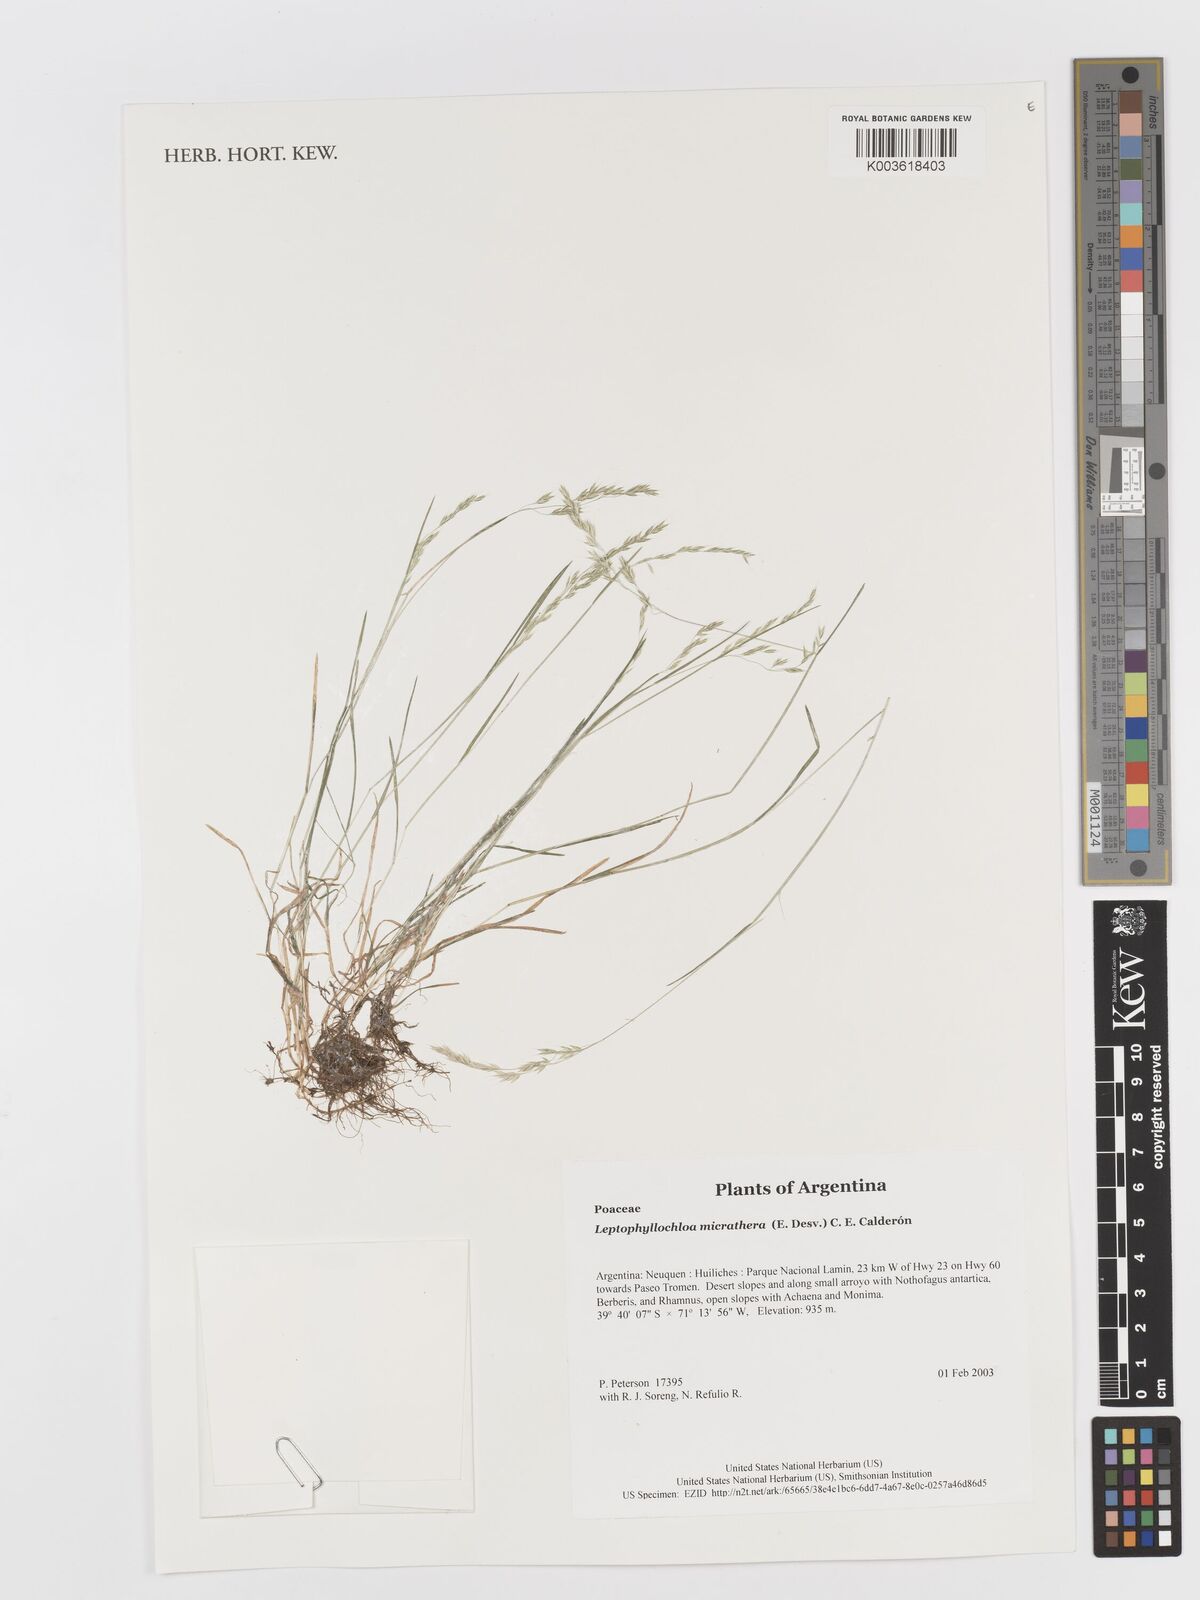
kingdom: Plantae
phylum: Tracheophyta
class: Liliopsida
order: Poales
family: Poaceae
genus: Cinnagrostis
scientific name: Cinnagrostis micrathera
